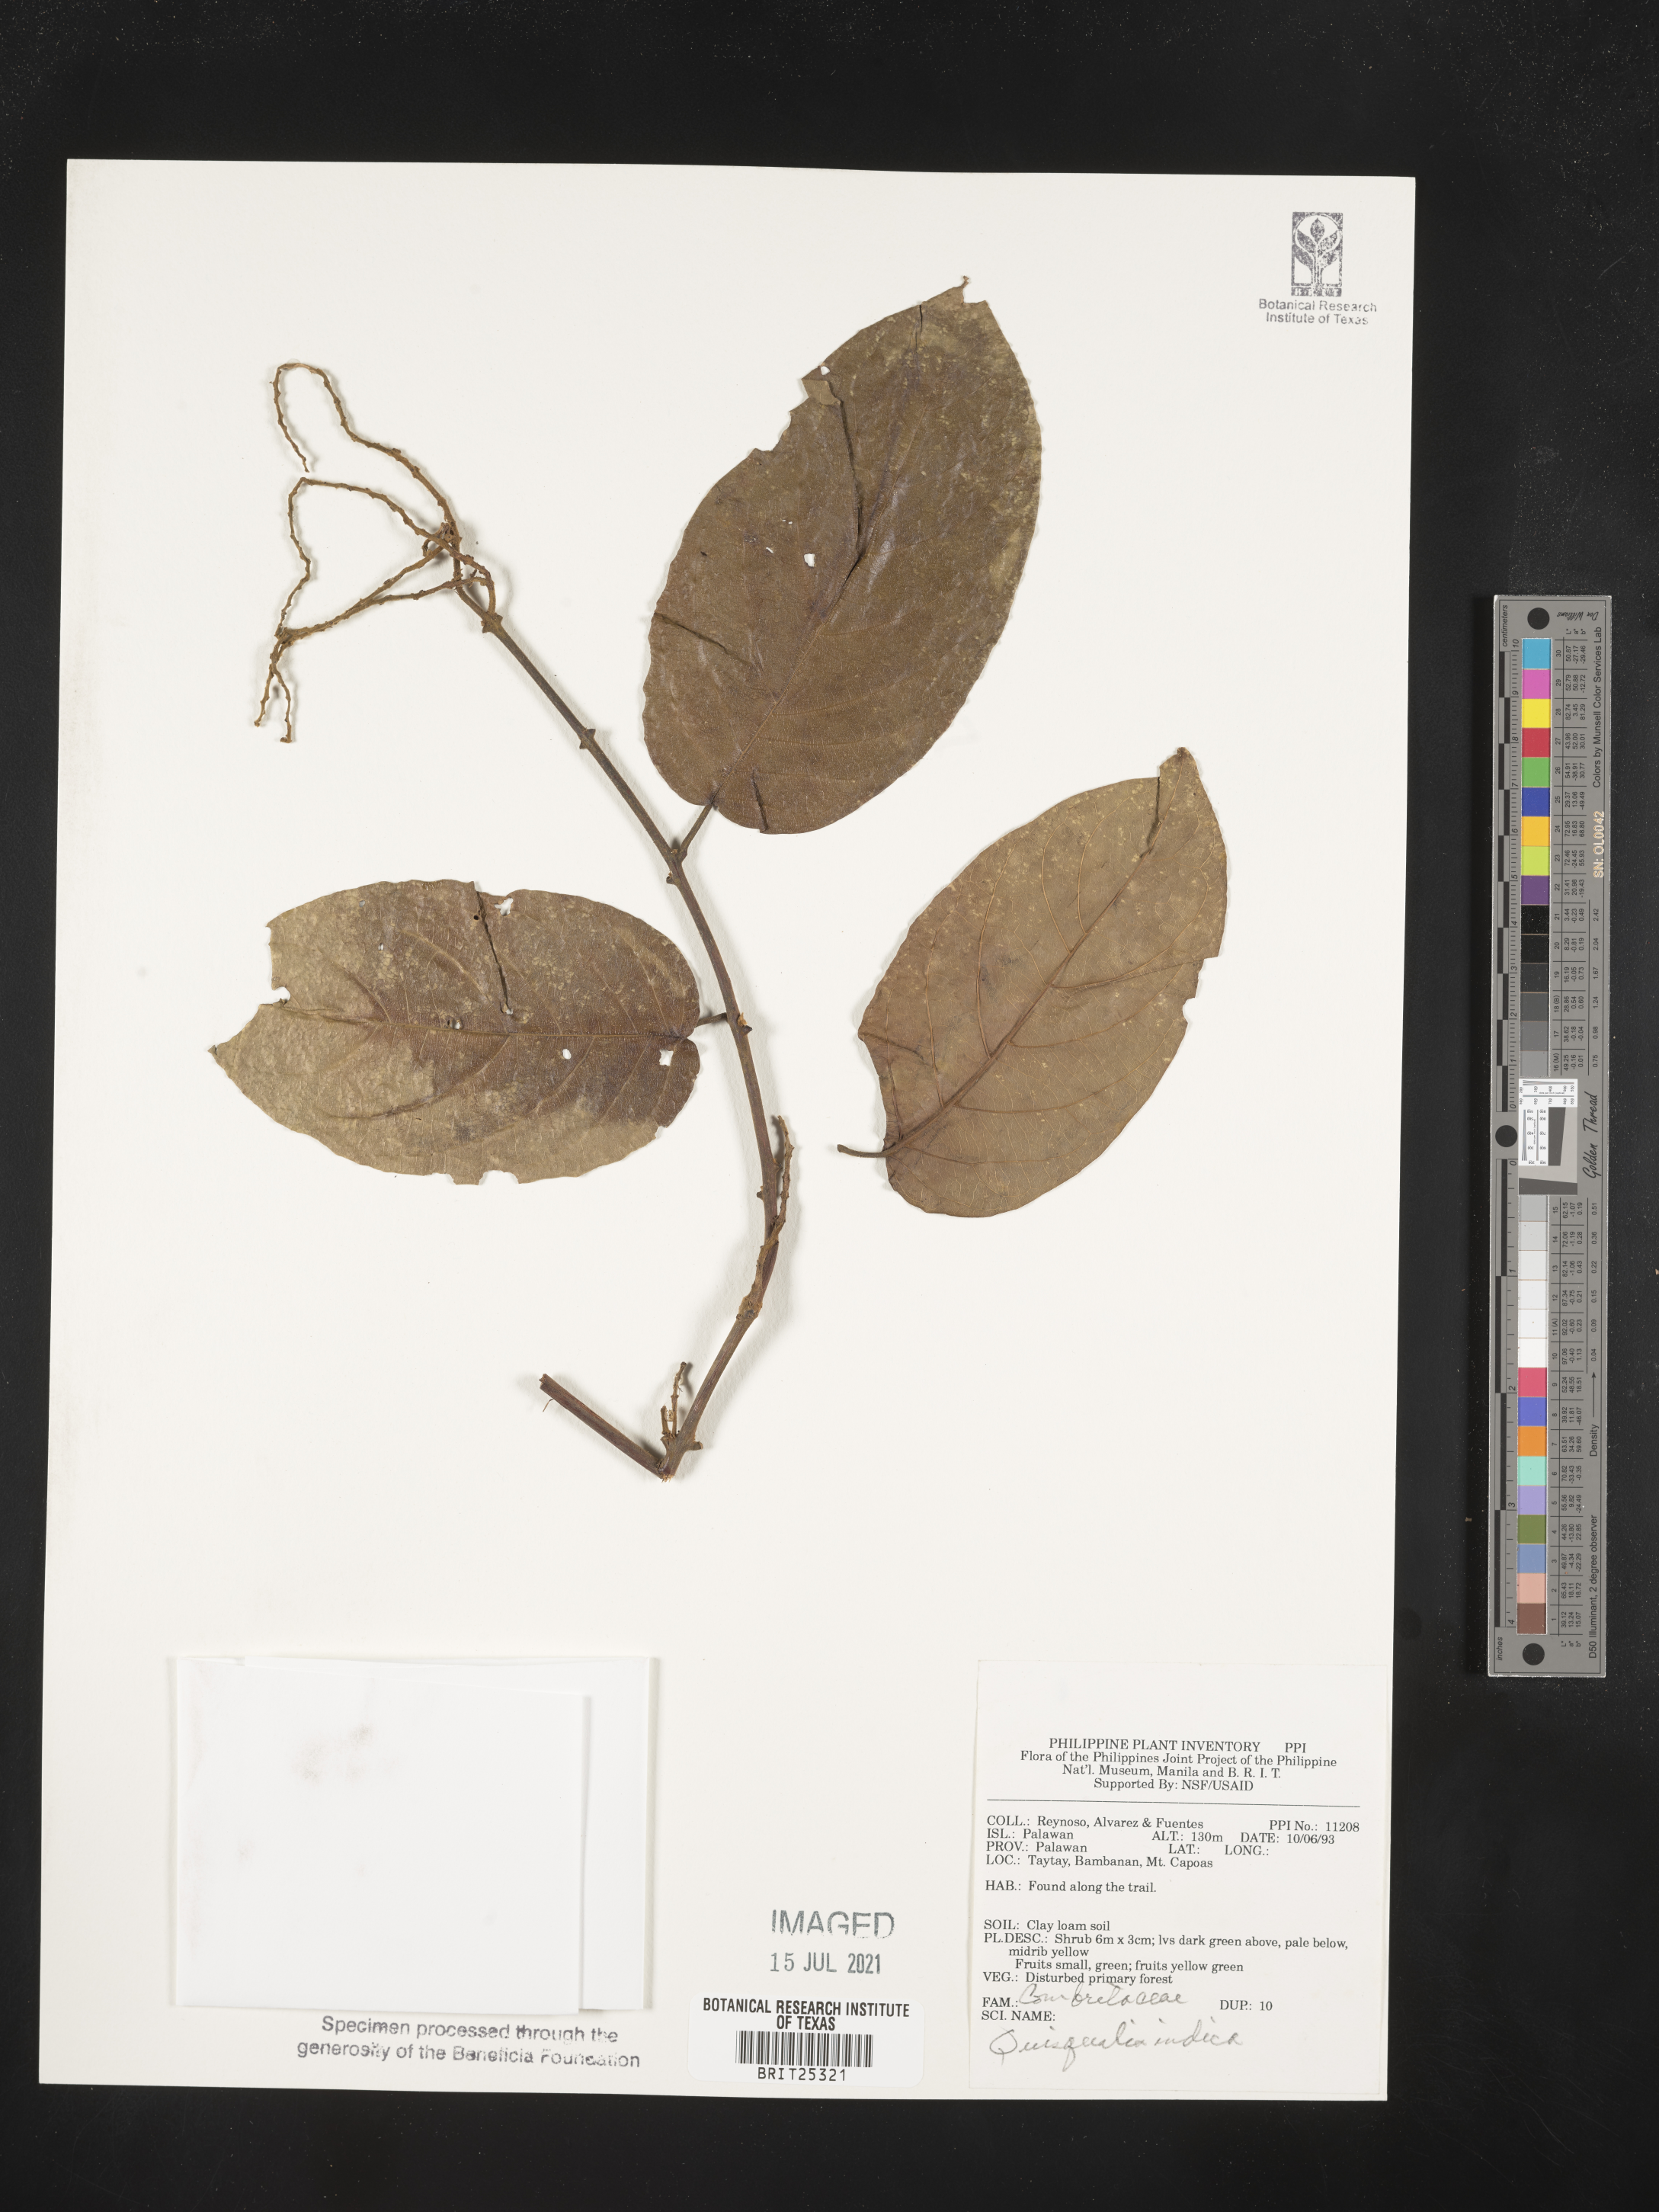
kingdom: Plantae
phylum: Tracheophyta
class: Magnoliopsida
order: Myrtales
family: Combretaceae
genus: Combretum
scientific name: Combretum indicum
